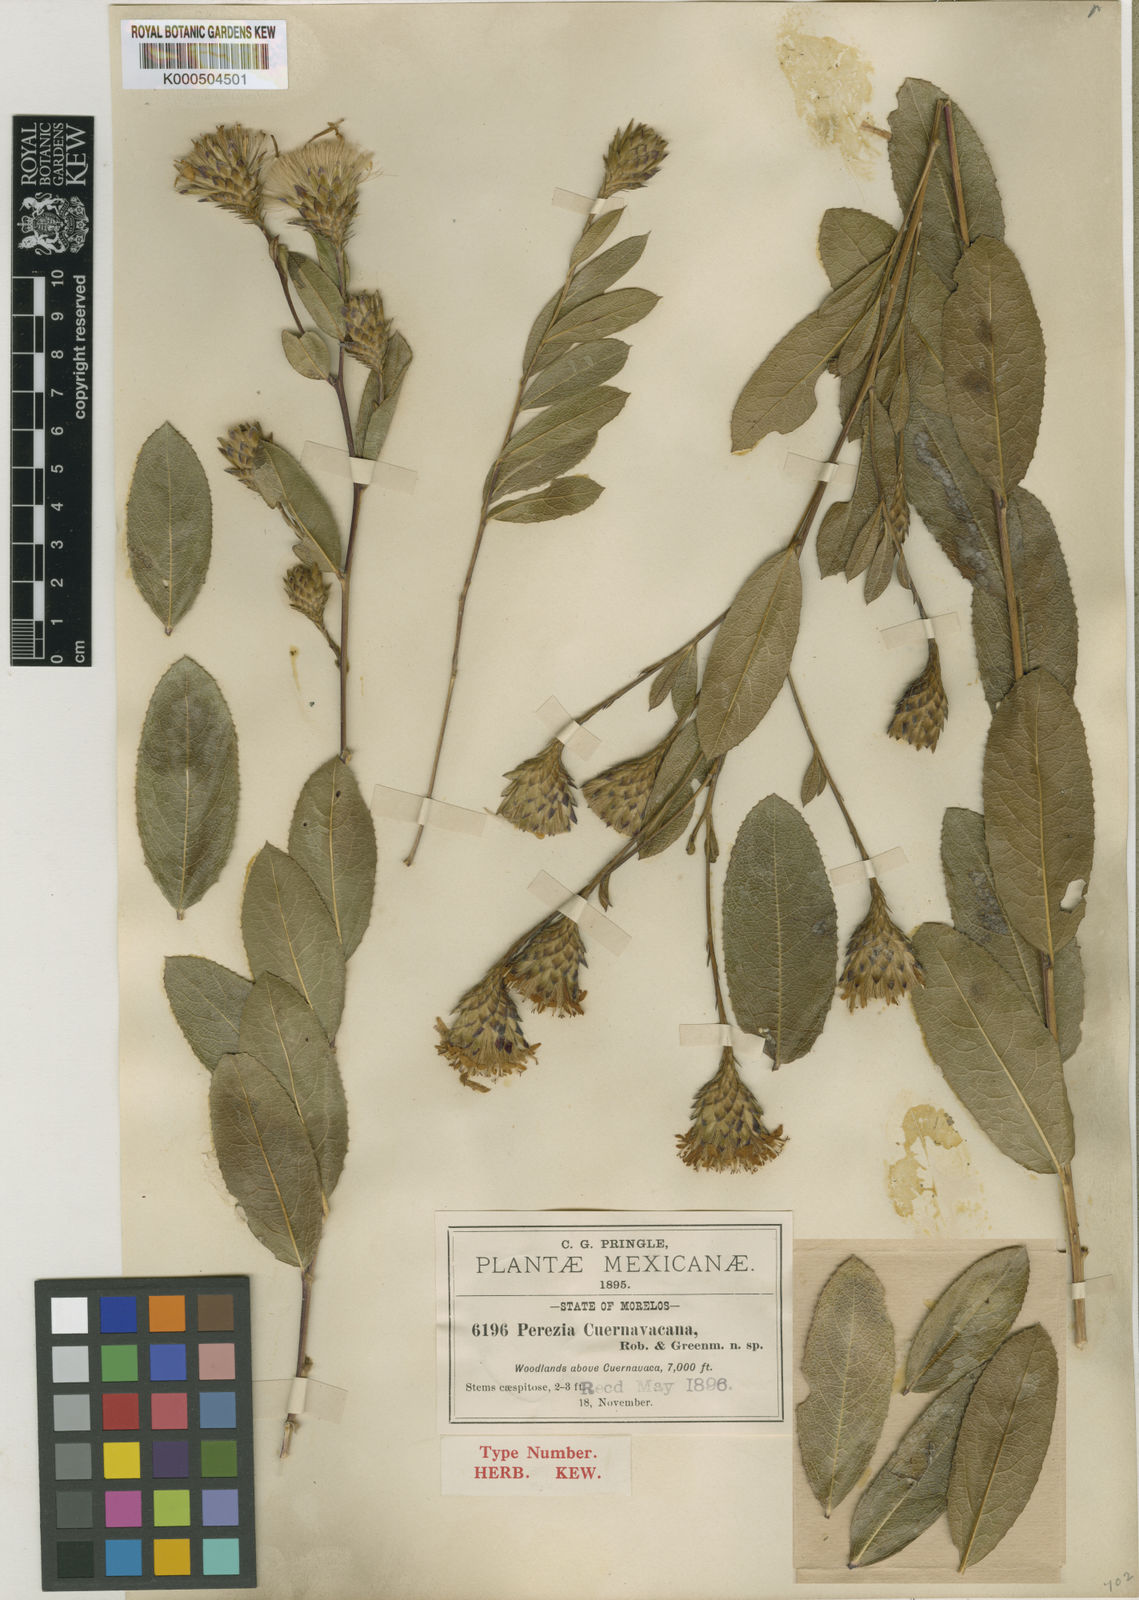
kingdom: Plantae
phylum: Tracheophyta
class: Magnoliopsida
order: Asterales
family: Asteraceae
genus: Acourtia
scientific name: Acourtia cuernavacana
